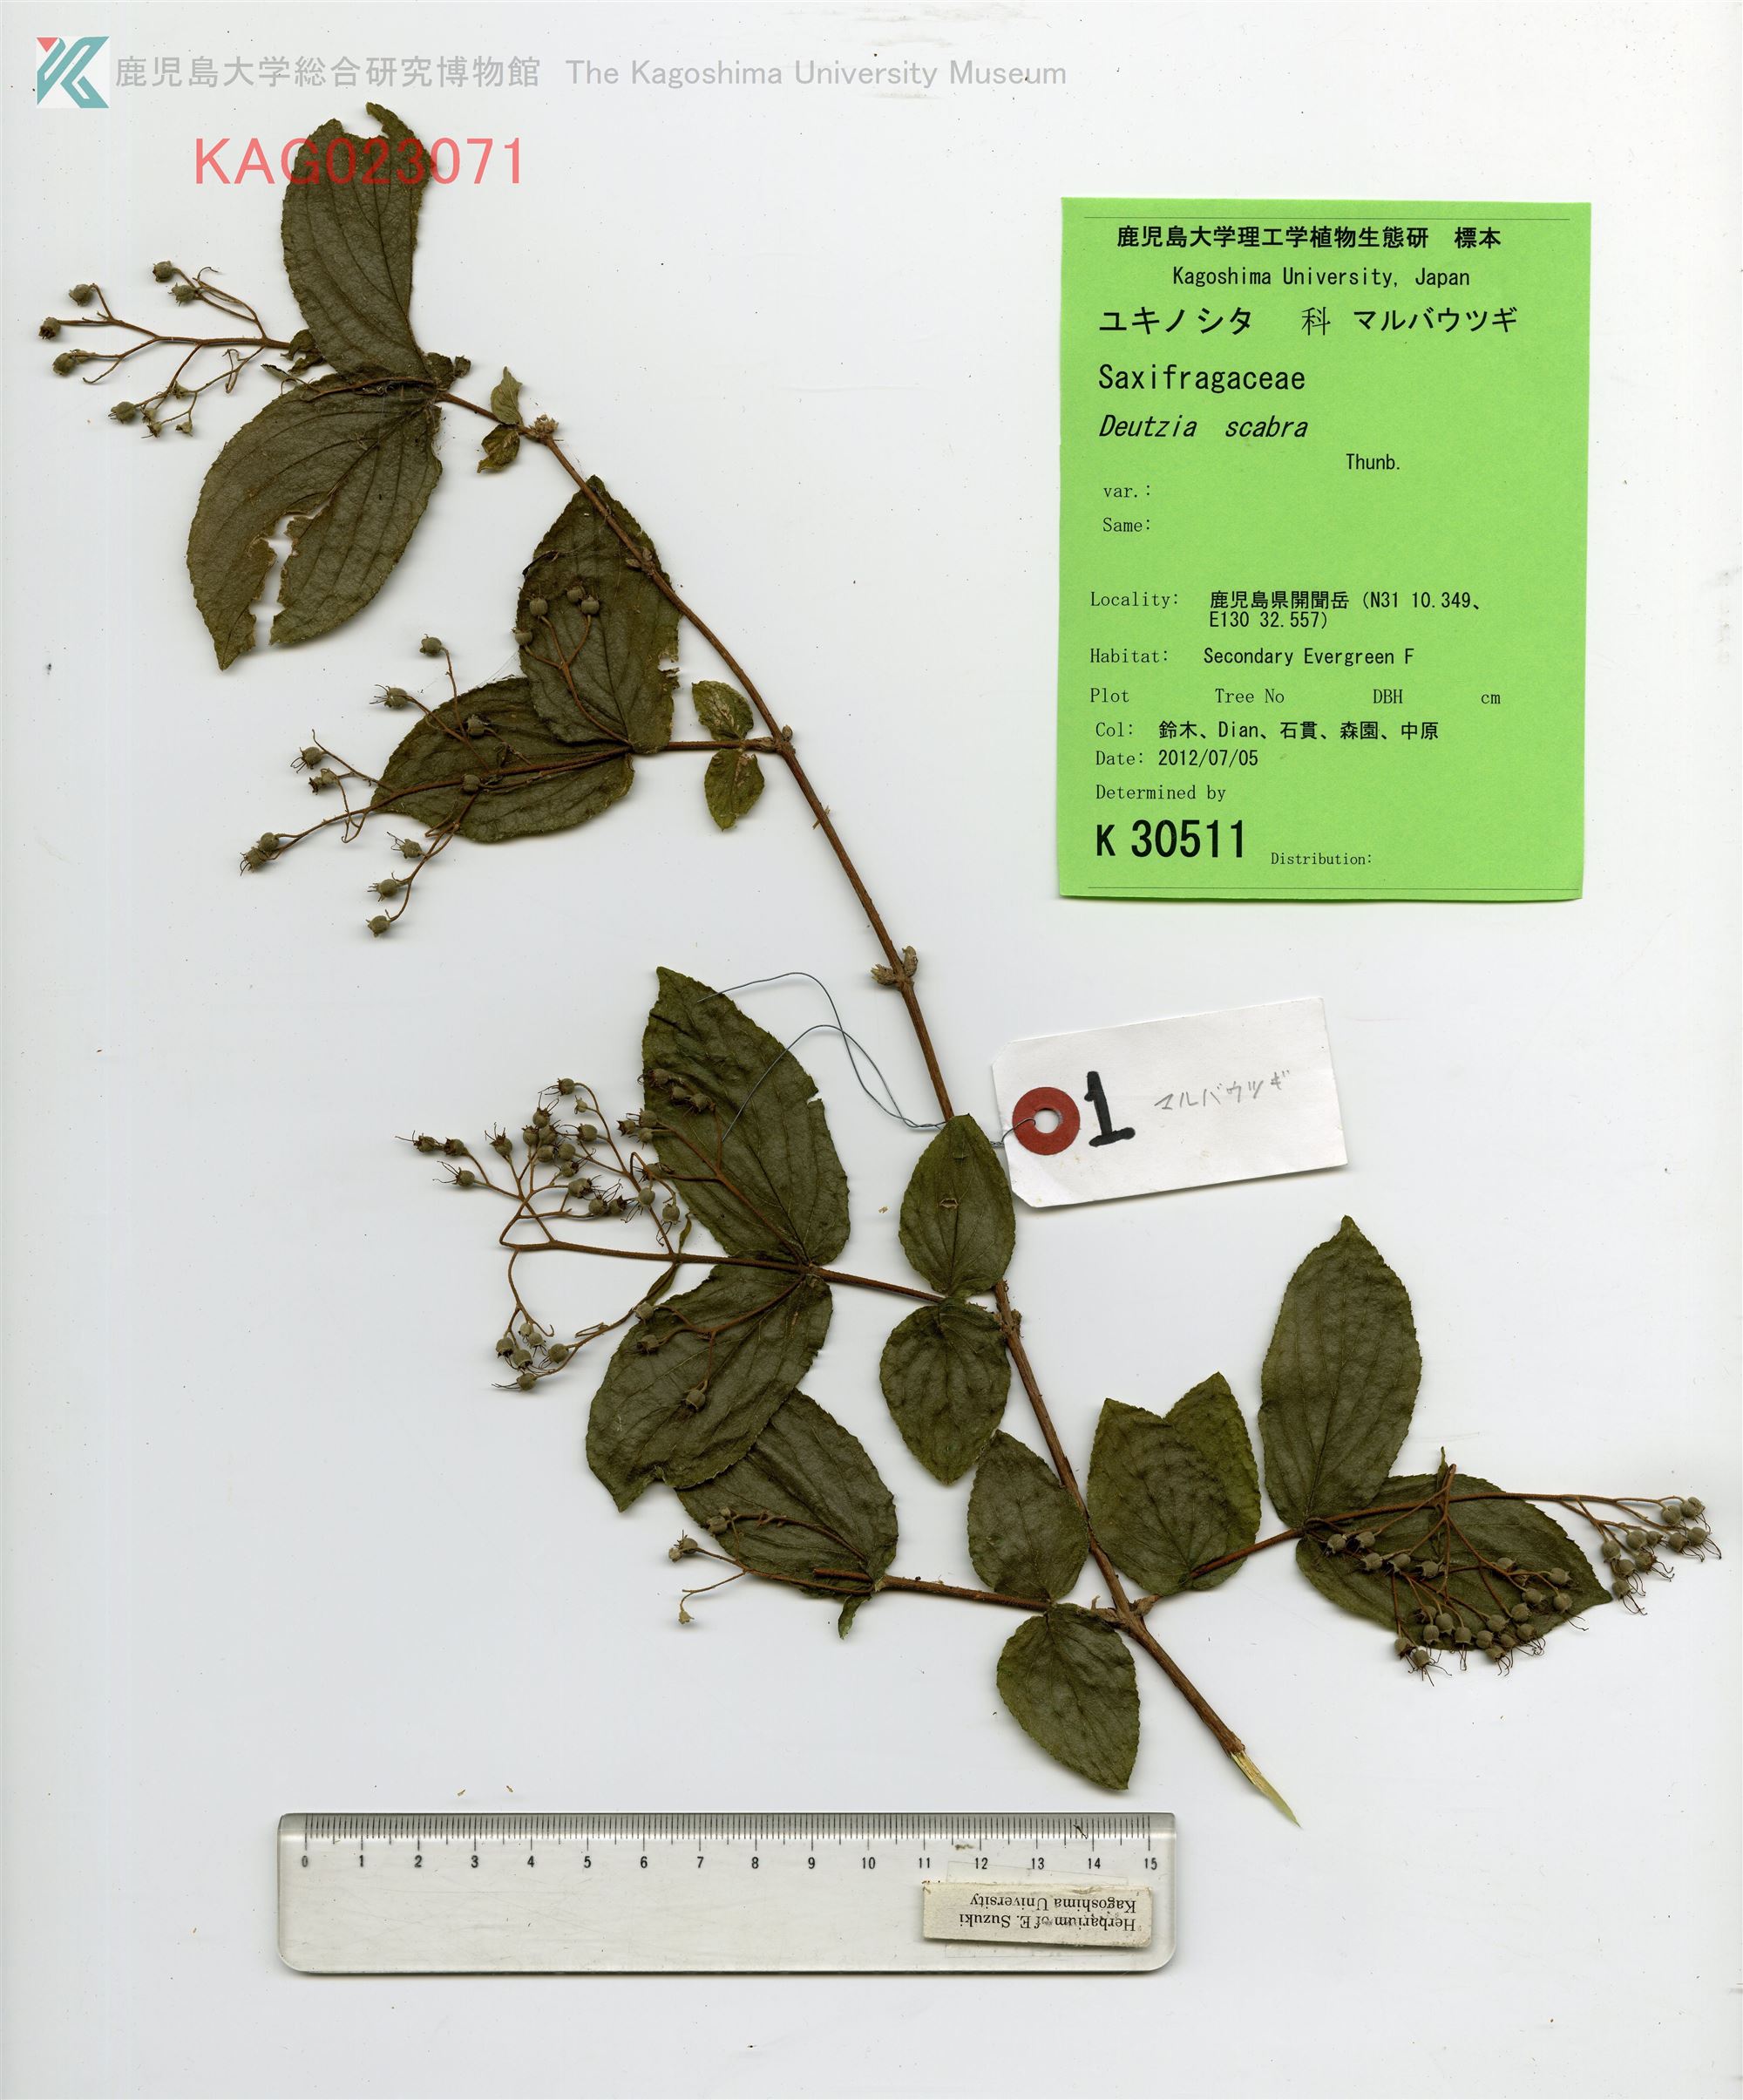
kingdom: Plantae
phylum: Tracheophyta
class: Magnoliopsida
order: Cornales
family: Hydrangeaceae
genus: Deutzia
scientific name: Deutzia scabra
